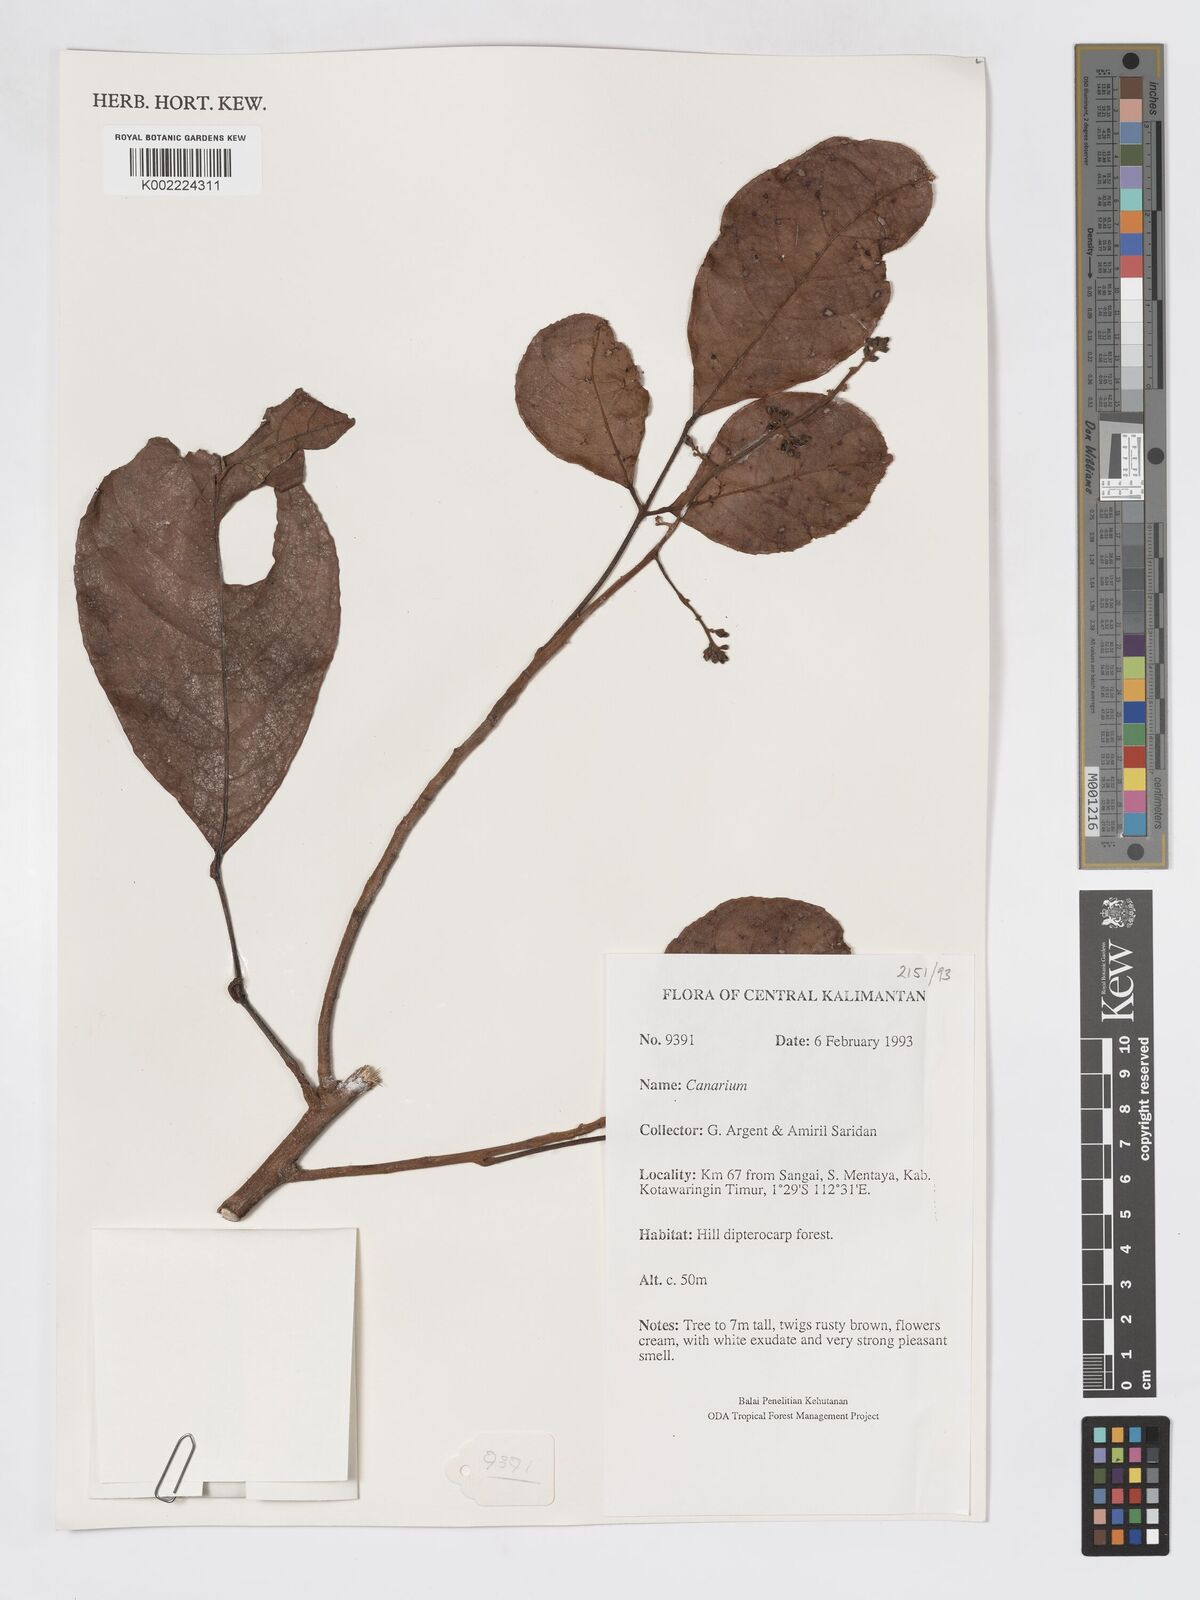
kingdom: Plantae
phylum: Tracheophyta
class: Magnoliopsida
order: Sapindales
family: Burseraceae
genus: Canarium
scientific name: Canarium
